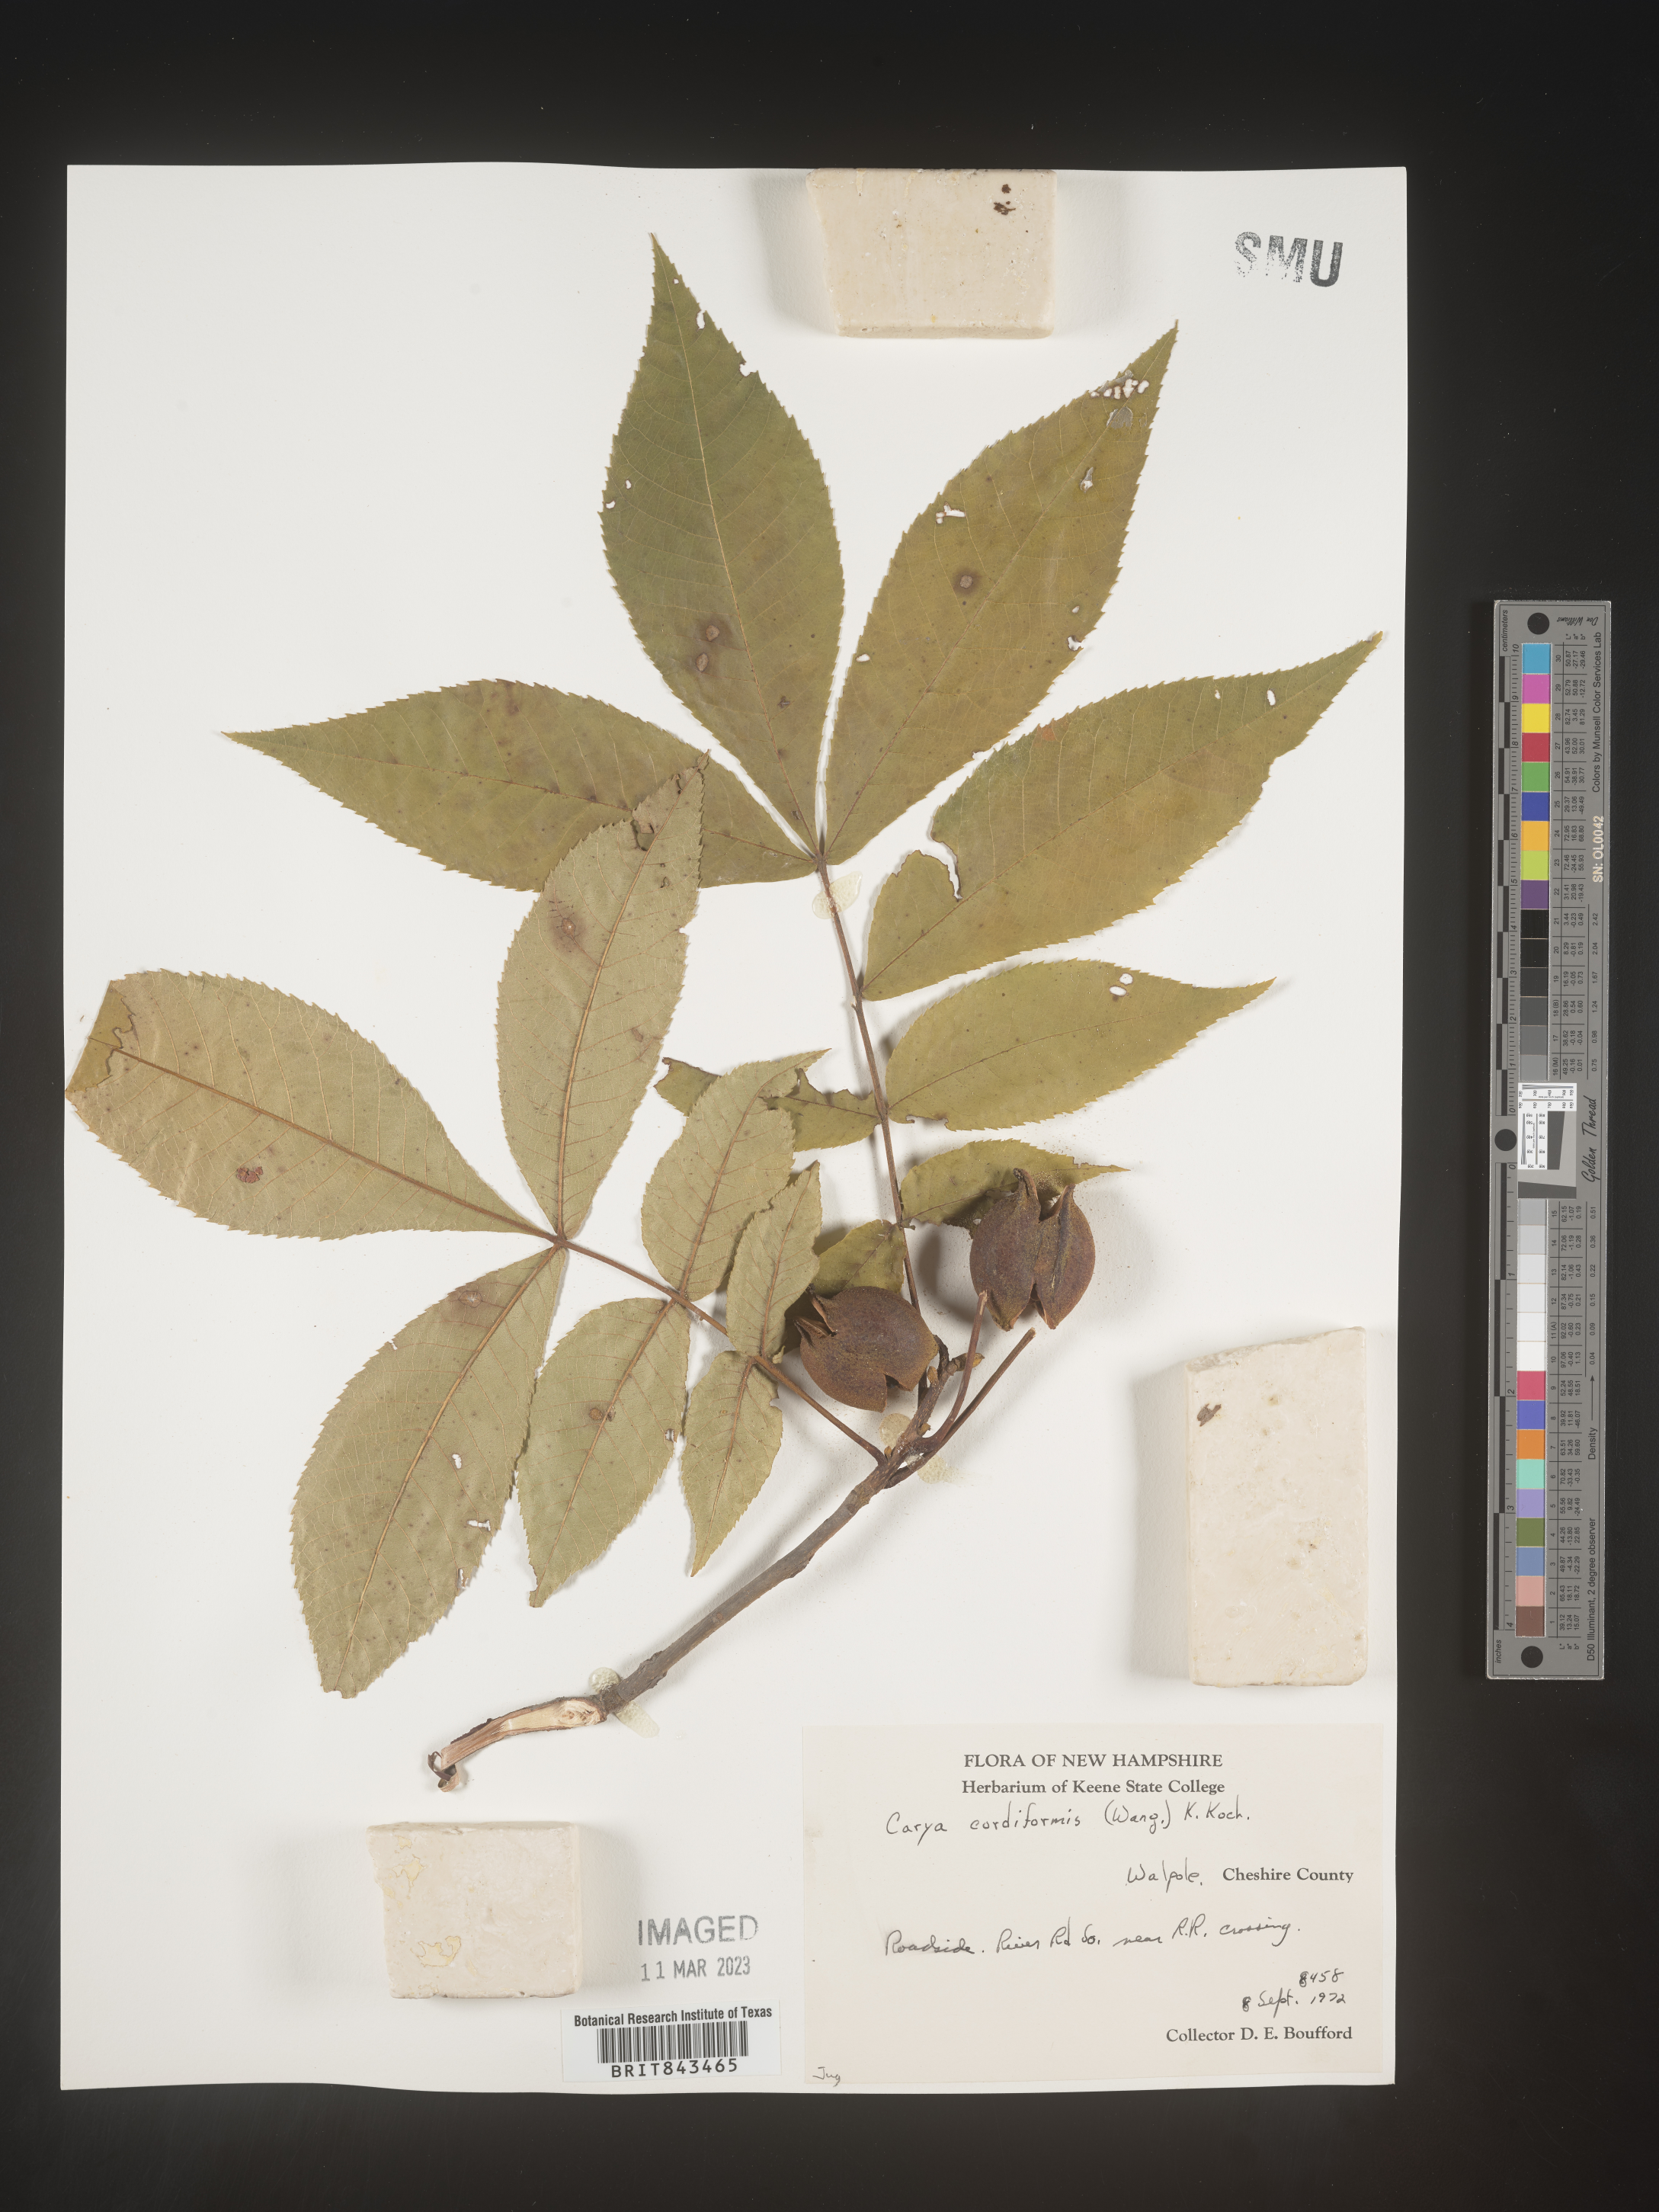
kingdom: Plantae
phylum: Tracheophyta
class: Magnoliopsida
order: Fagales
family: Juglandaceae
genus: Carya
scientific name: Carya cordiformis
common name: Bitternut hickory
